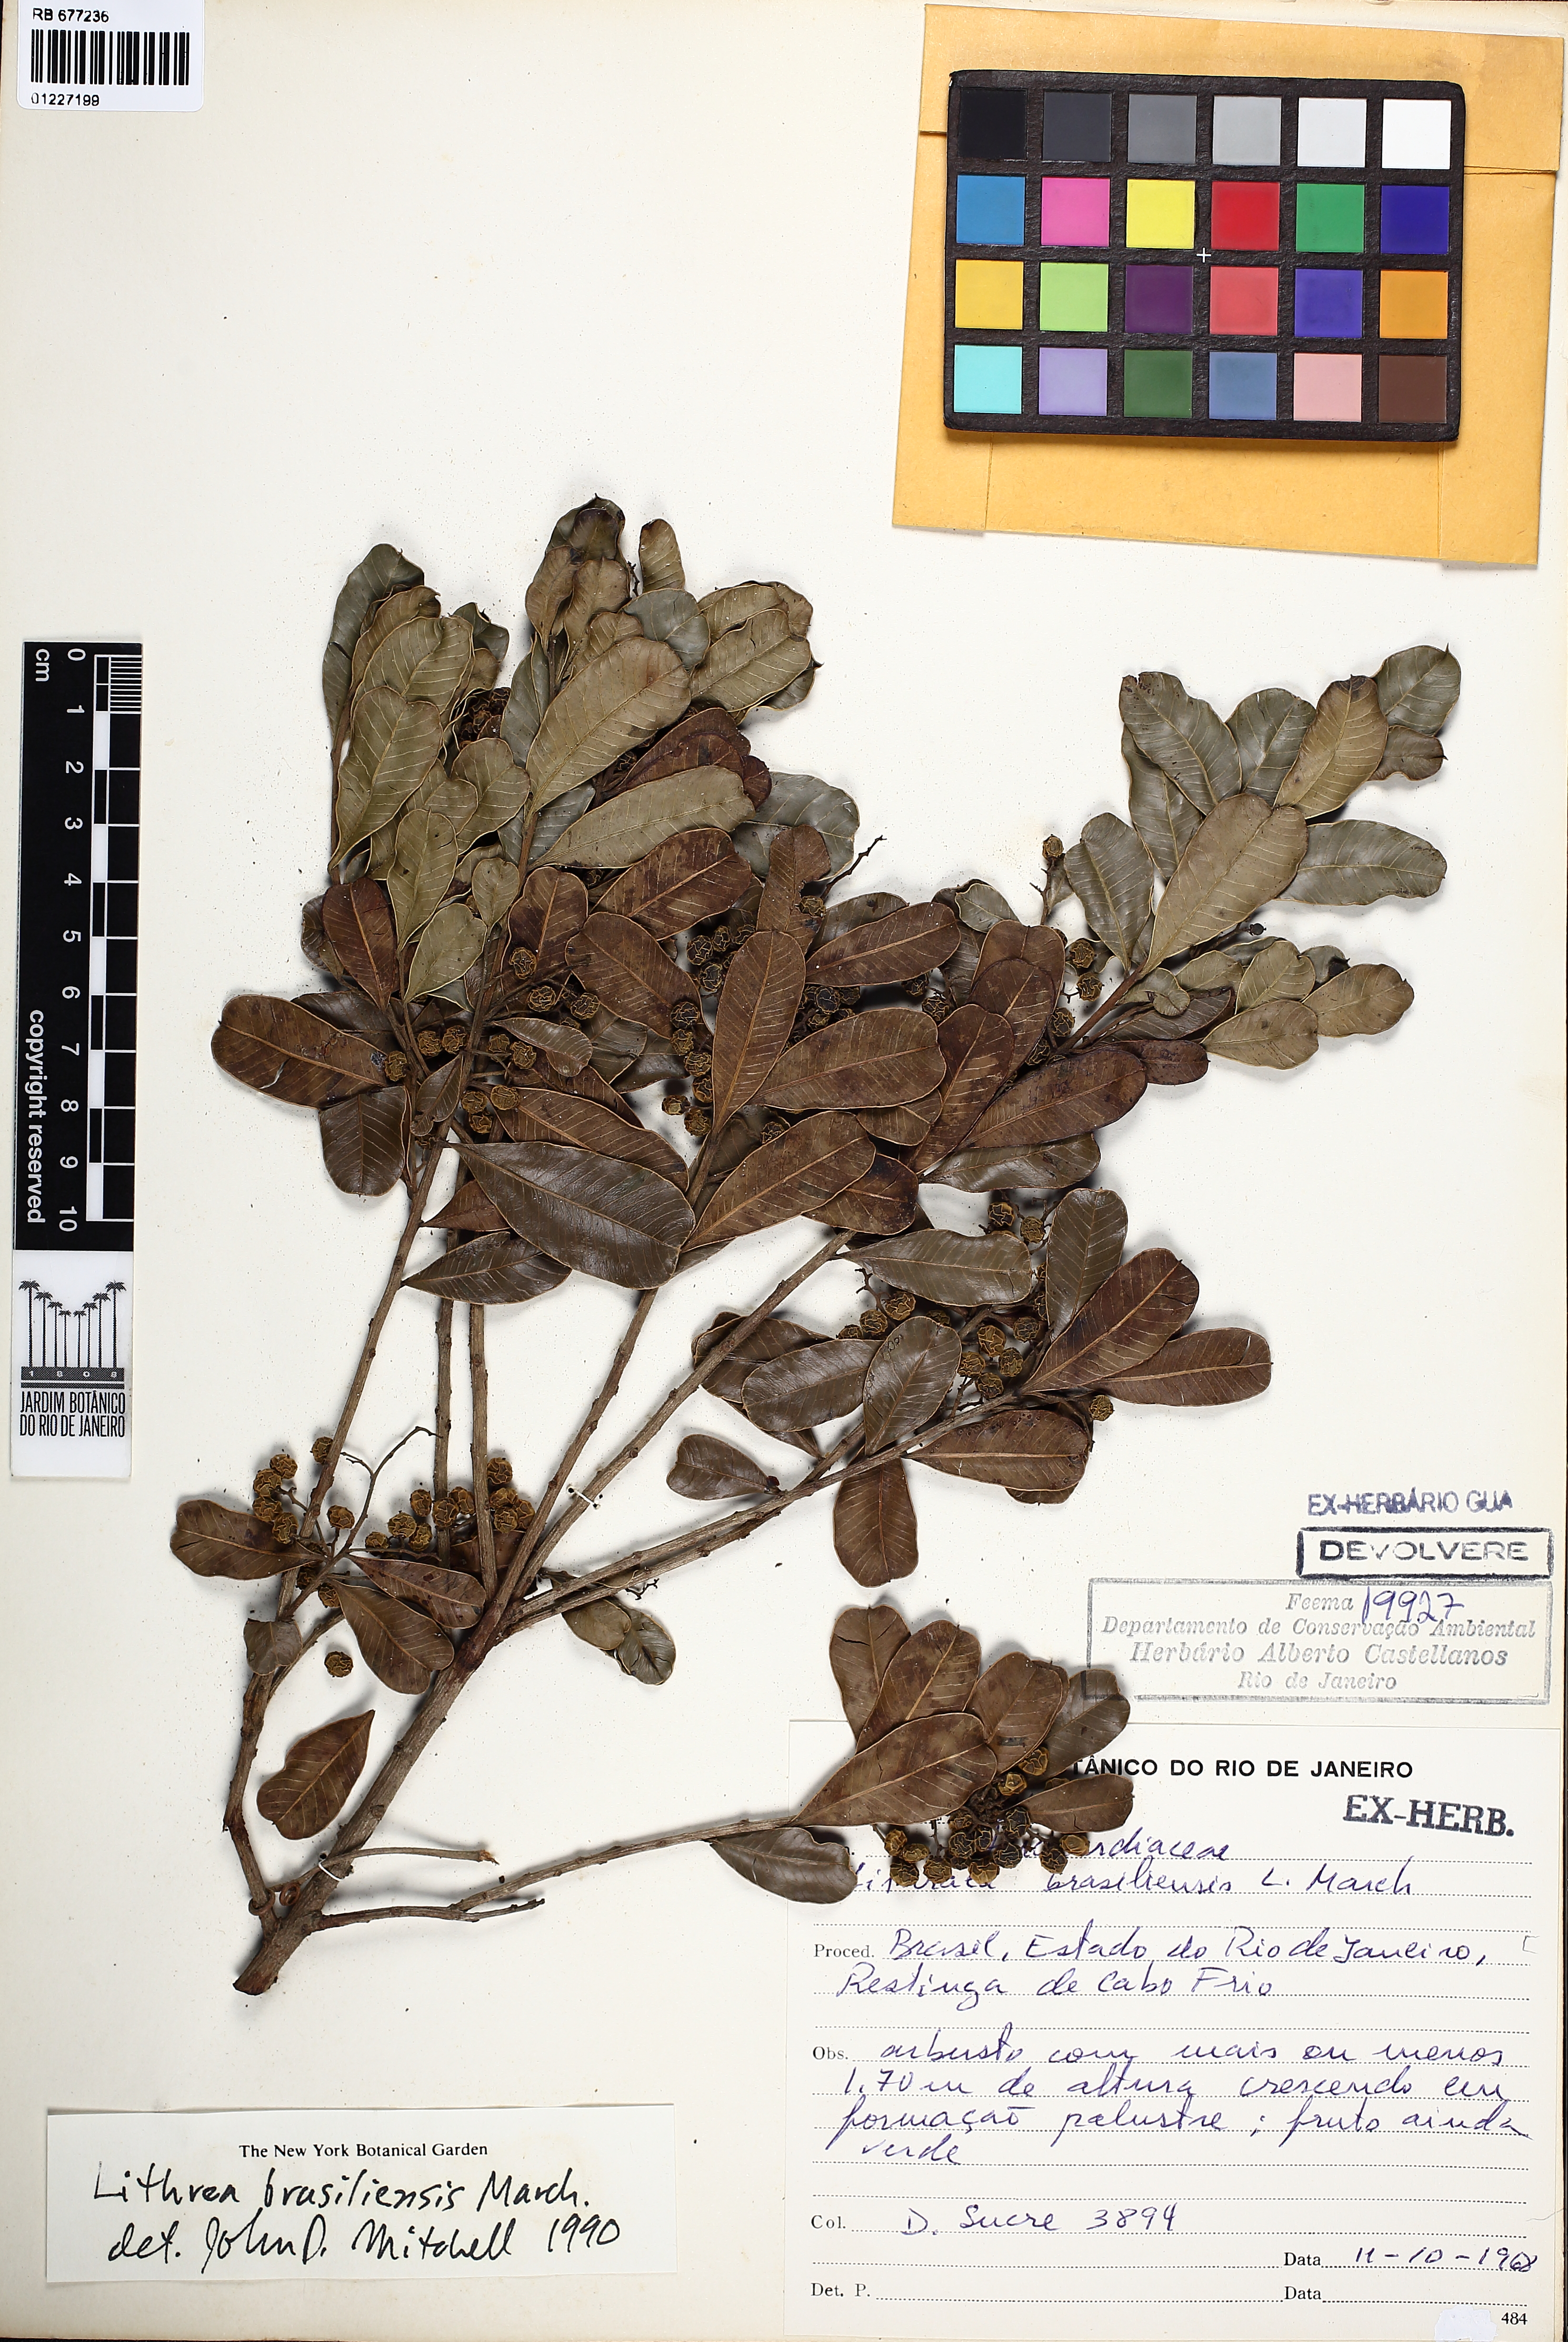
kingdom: Plantae
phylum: Tracheophyta
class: Magnoliopsida
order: Sapindales
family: Anacardiaceae
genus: Lithraea
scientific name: Lithraea brasiliensis
